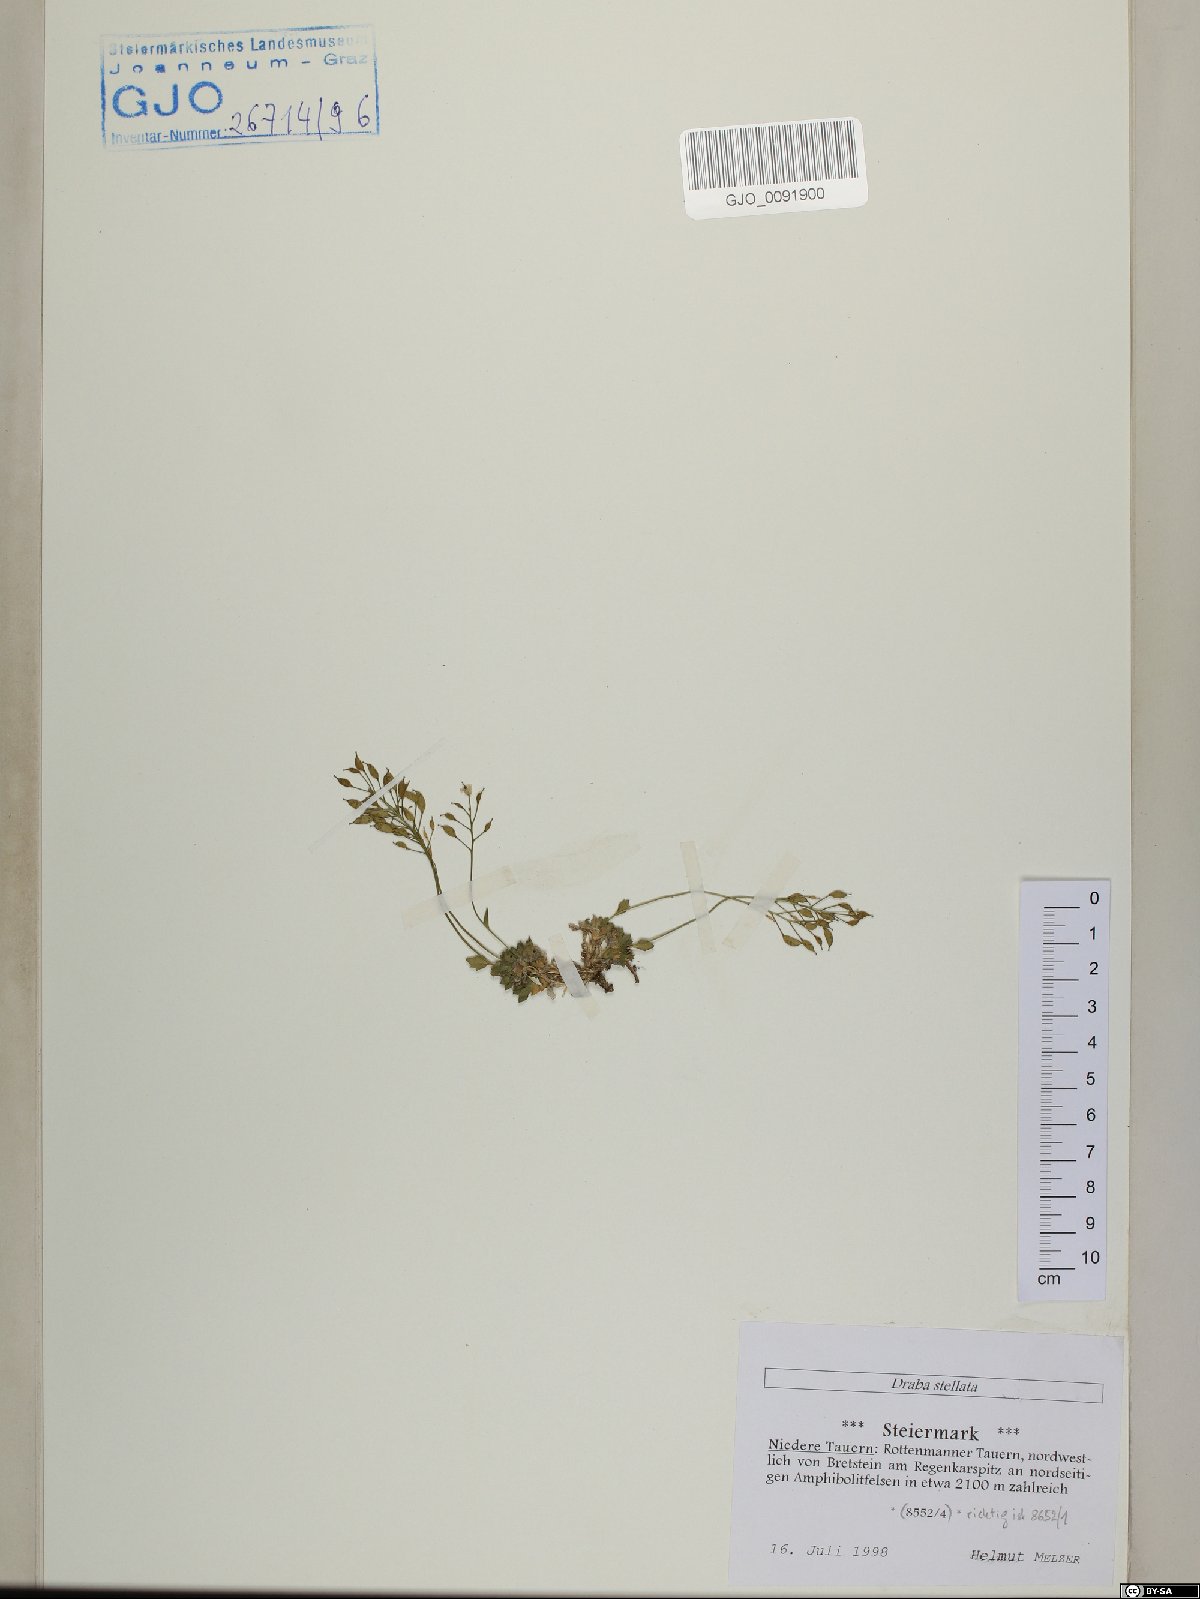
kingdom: Plantae
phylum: Tracheophyta
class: Magnoliopsida
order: Brassicales
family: Brassicaceae
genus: Draba
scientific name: Draba stellata
